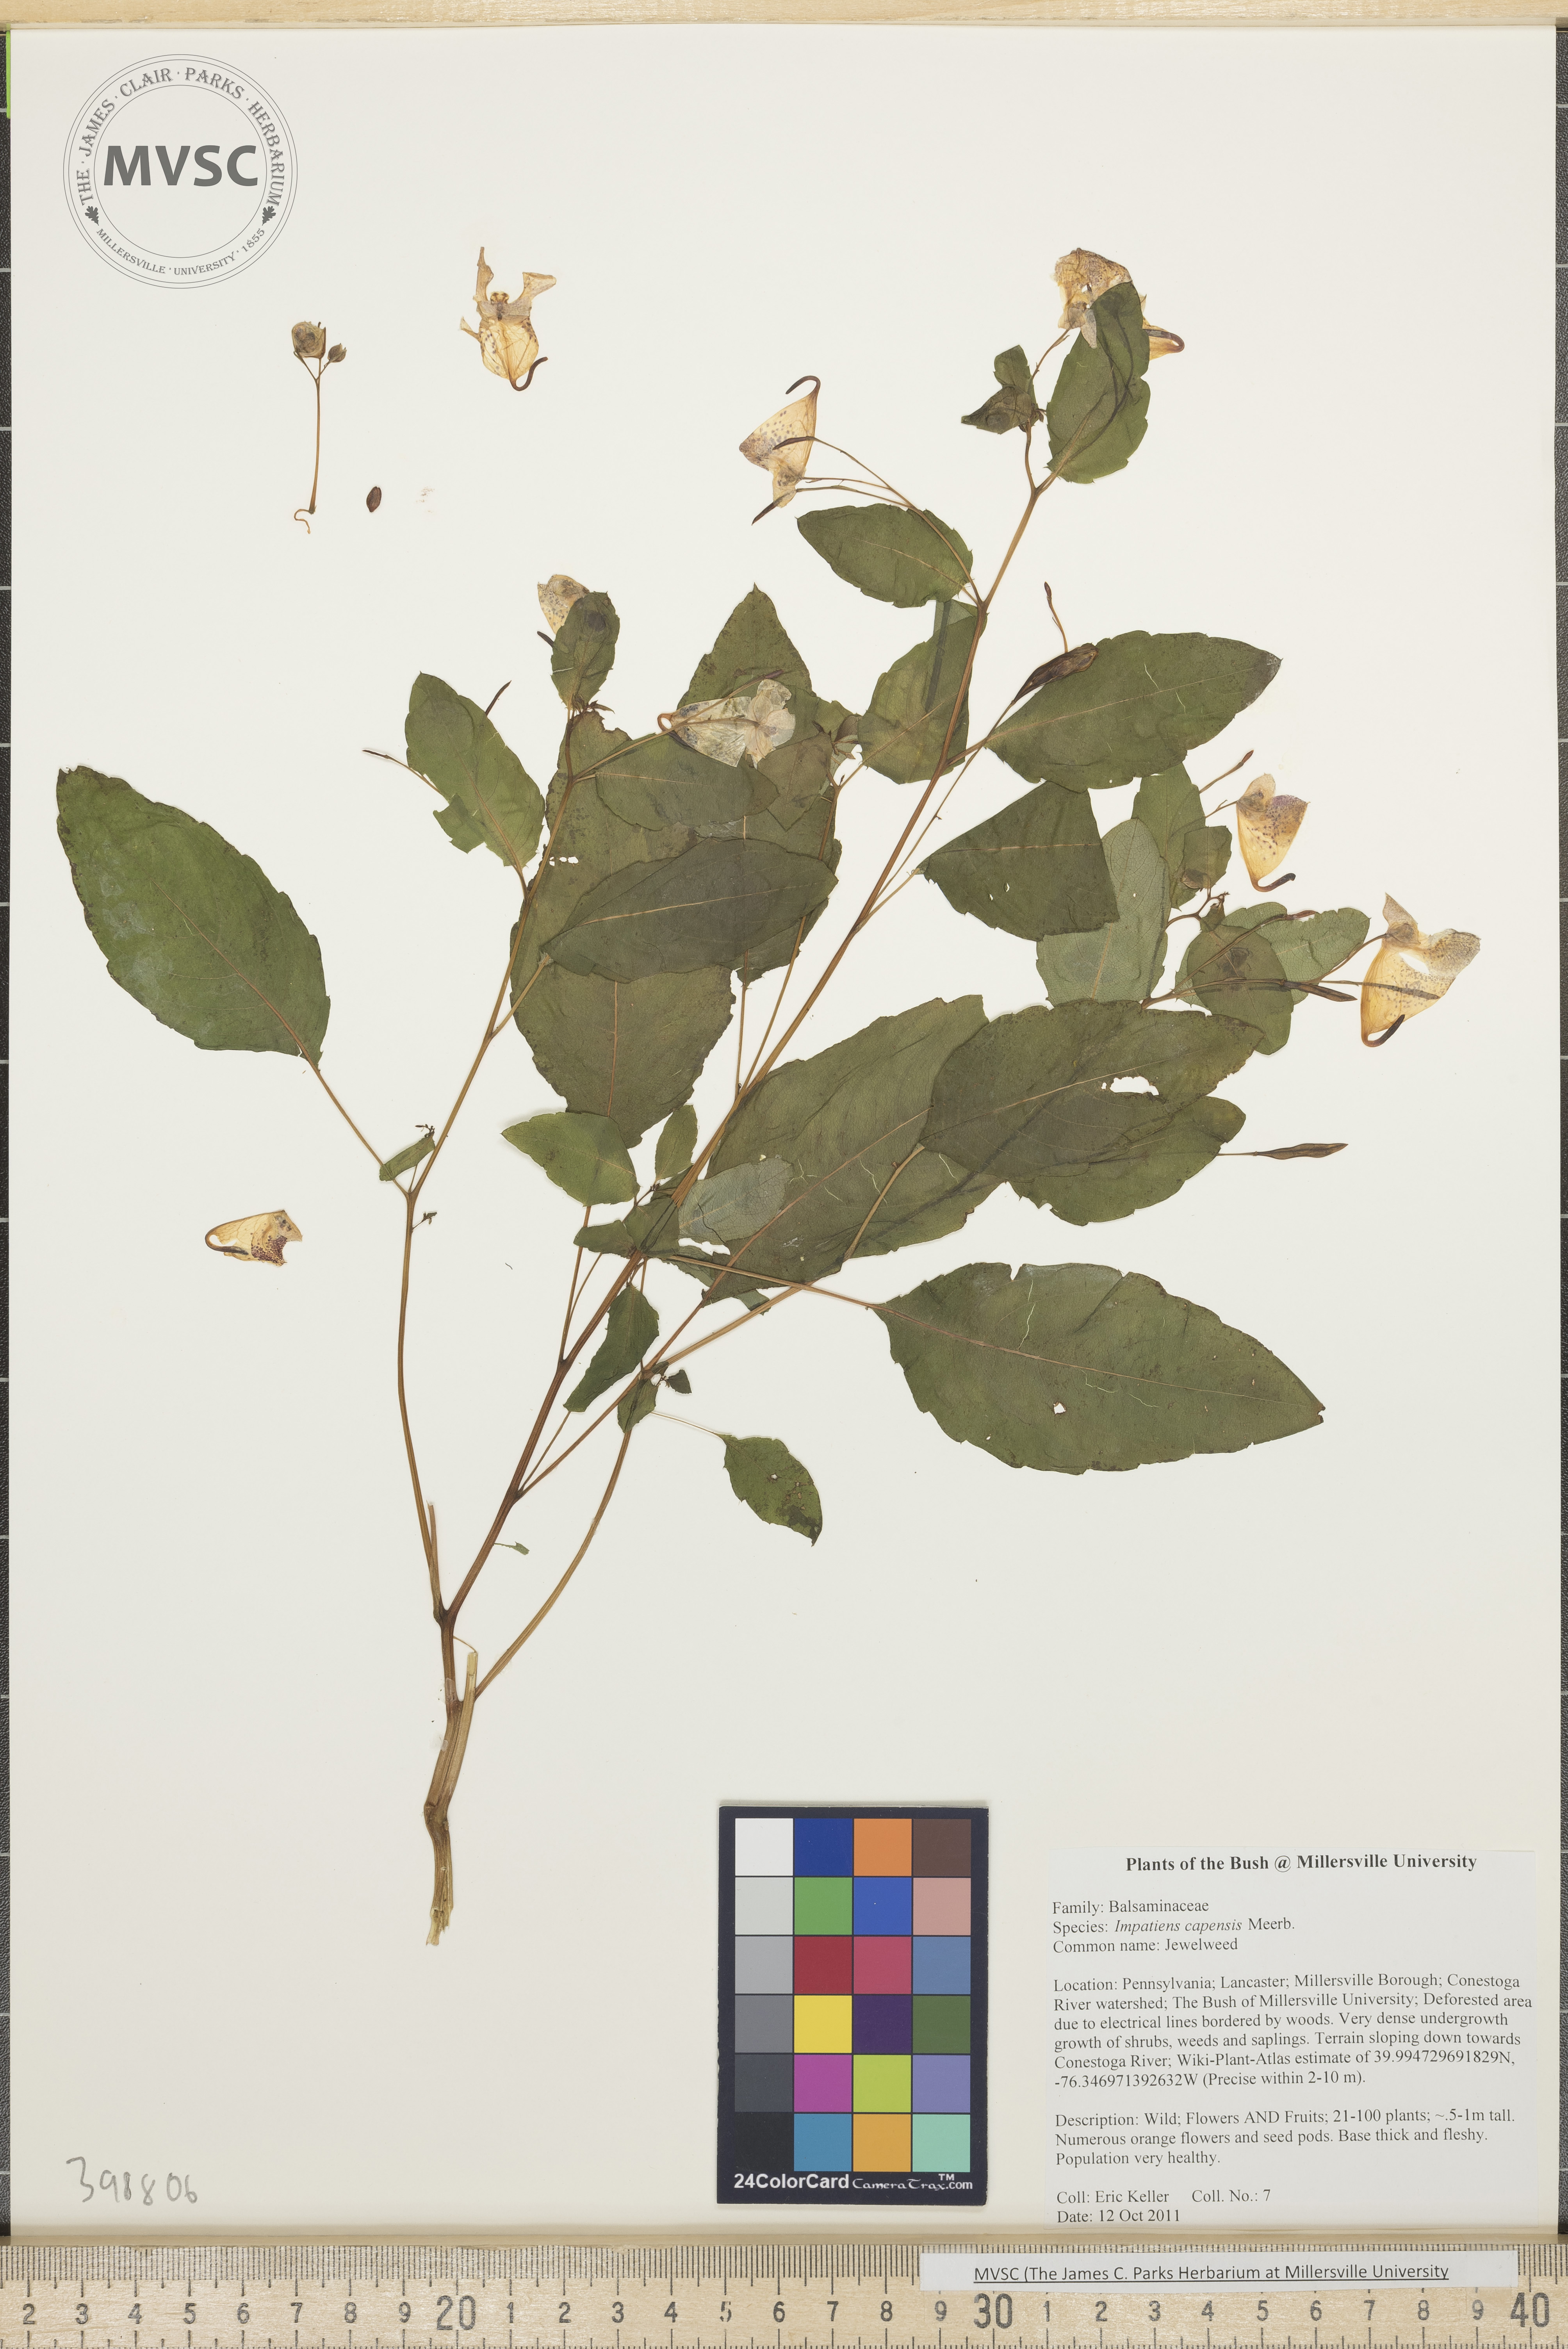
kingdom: Plantae
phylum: Tracheophyta
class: Magnoliopsida
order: Ericales
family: Balsaminaceae
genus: Impatiens
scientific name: Impatiens capensis
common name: Jewelweed
